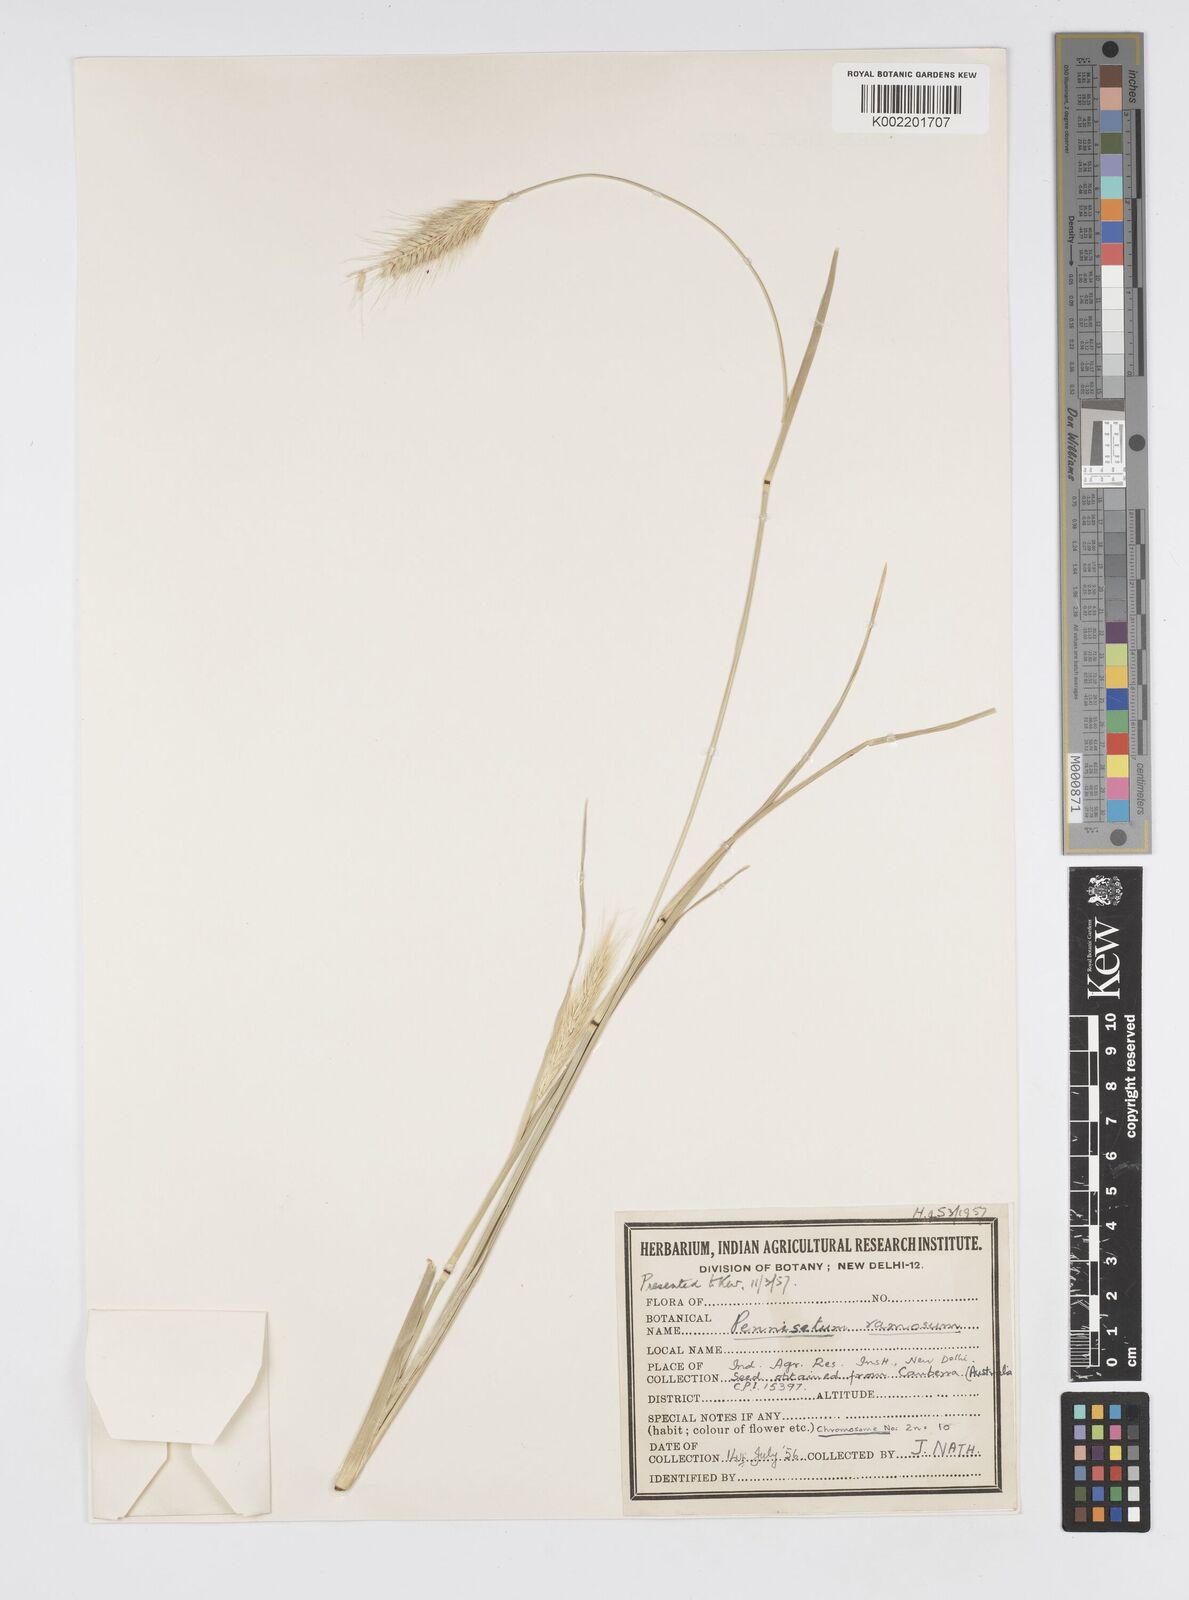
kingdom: Plantae
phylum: Tracheophyta
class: Liliopsida
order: Poales
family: Poaceae
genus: Cenchrus
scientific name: Cenchrus Pennisetum spec
